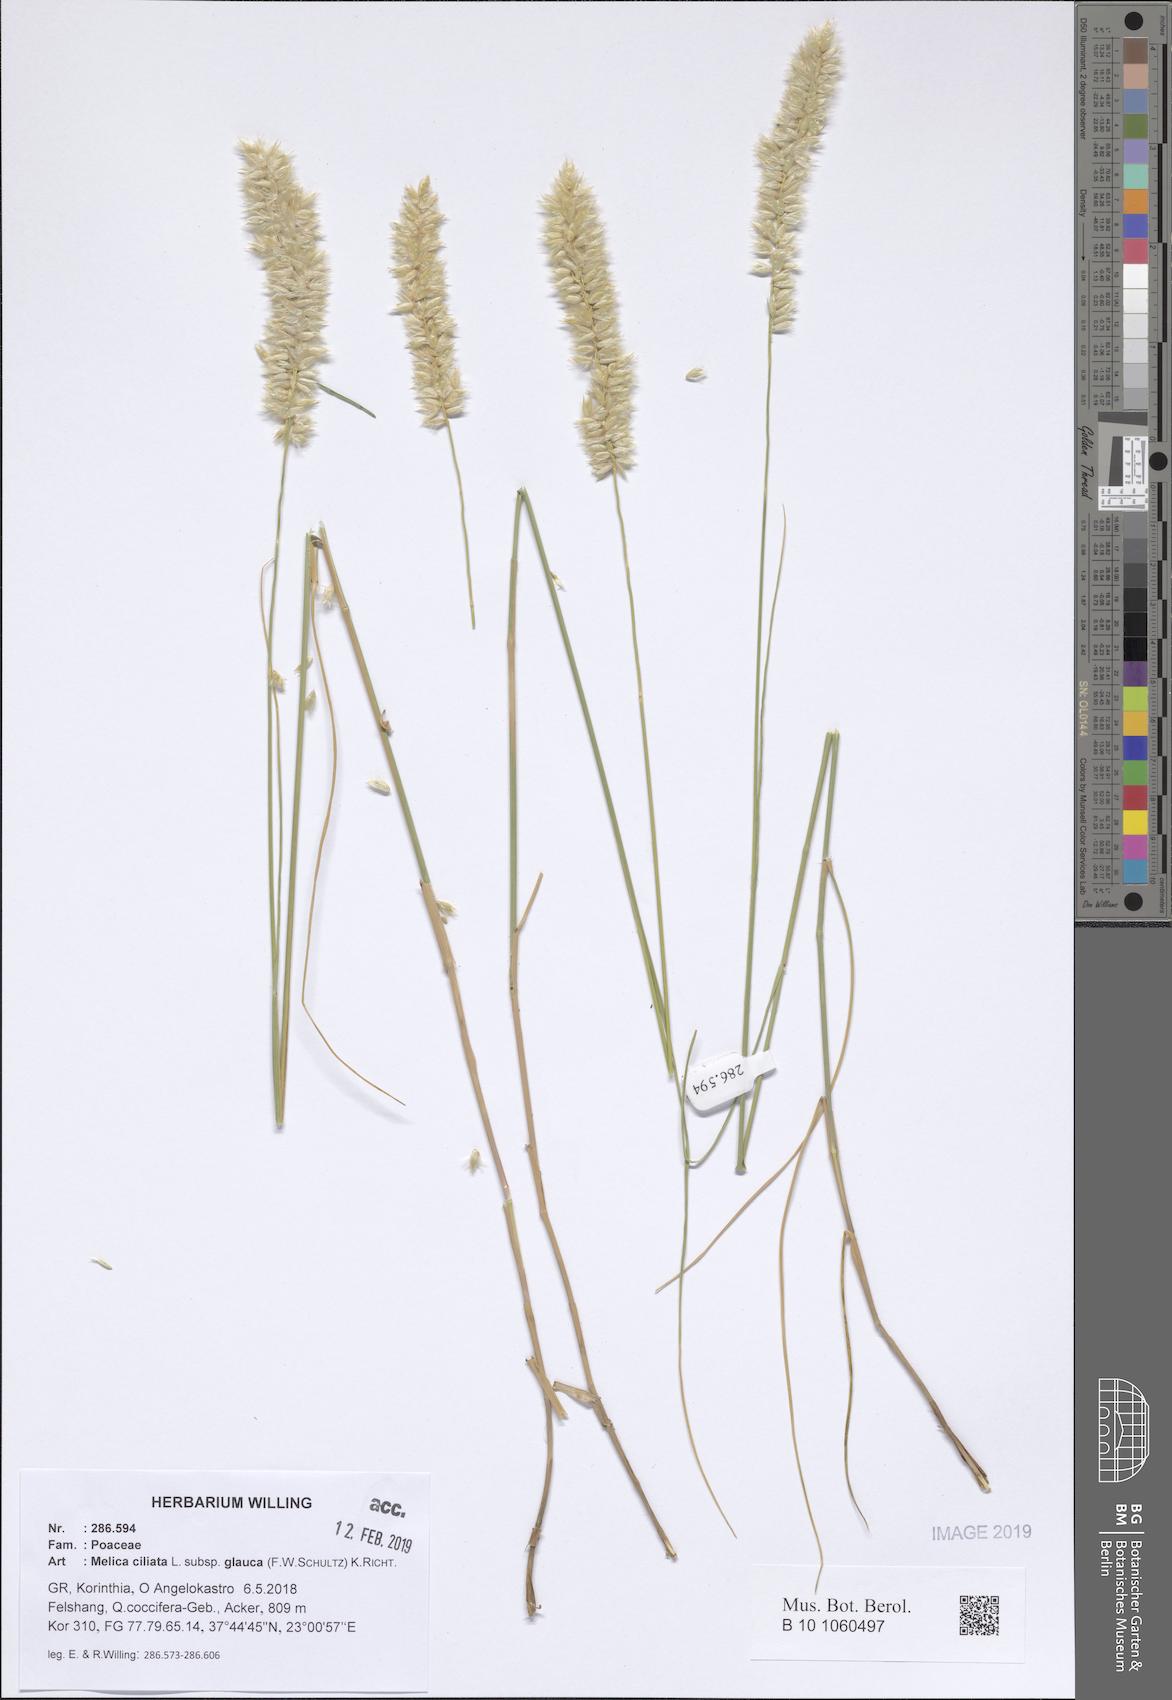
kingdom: Plantae
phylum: Tracheophyta
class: Liliopsida
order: Poales
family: Poaceae
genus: Melica
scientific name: Melica ciliata
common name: Hairy melicgrass
